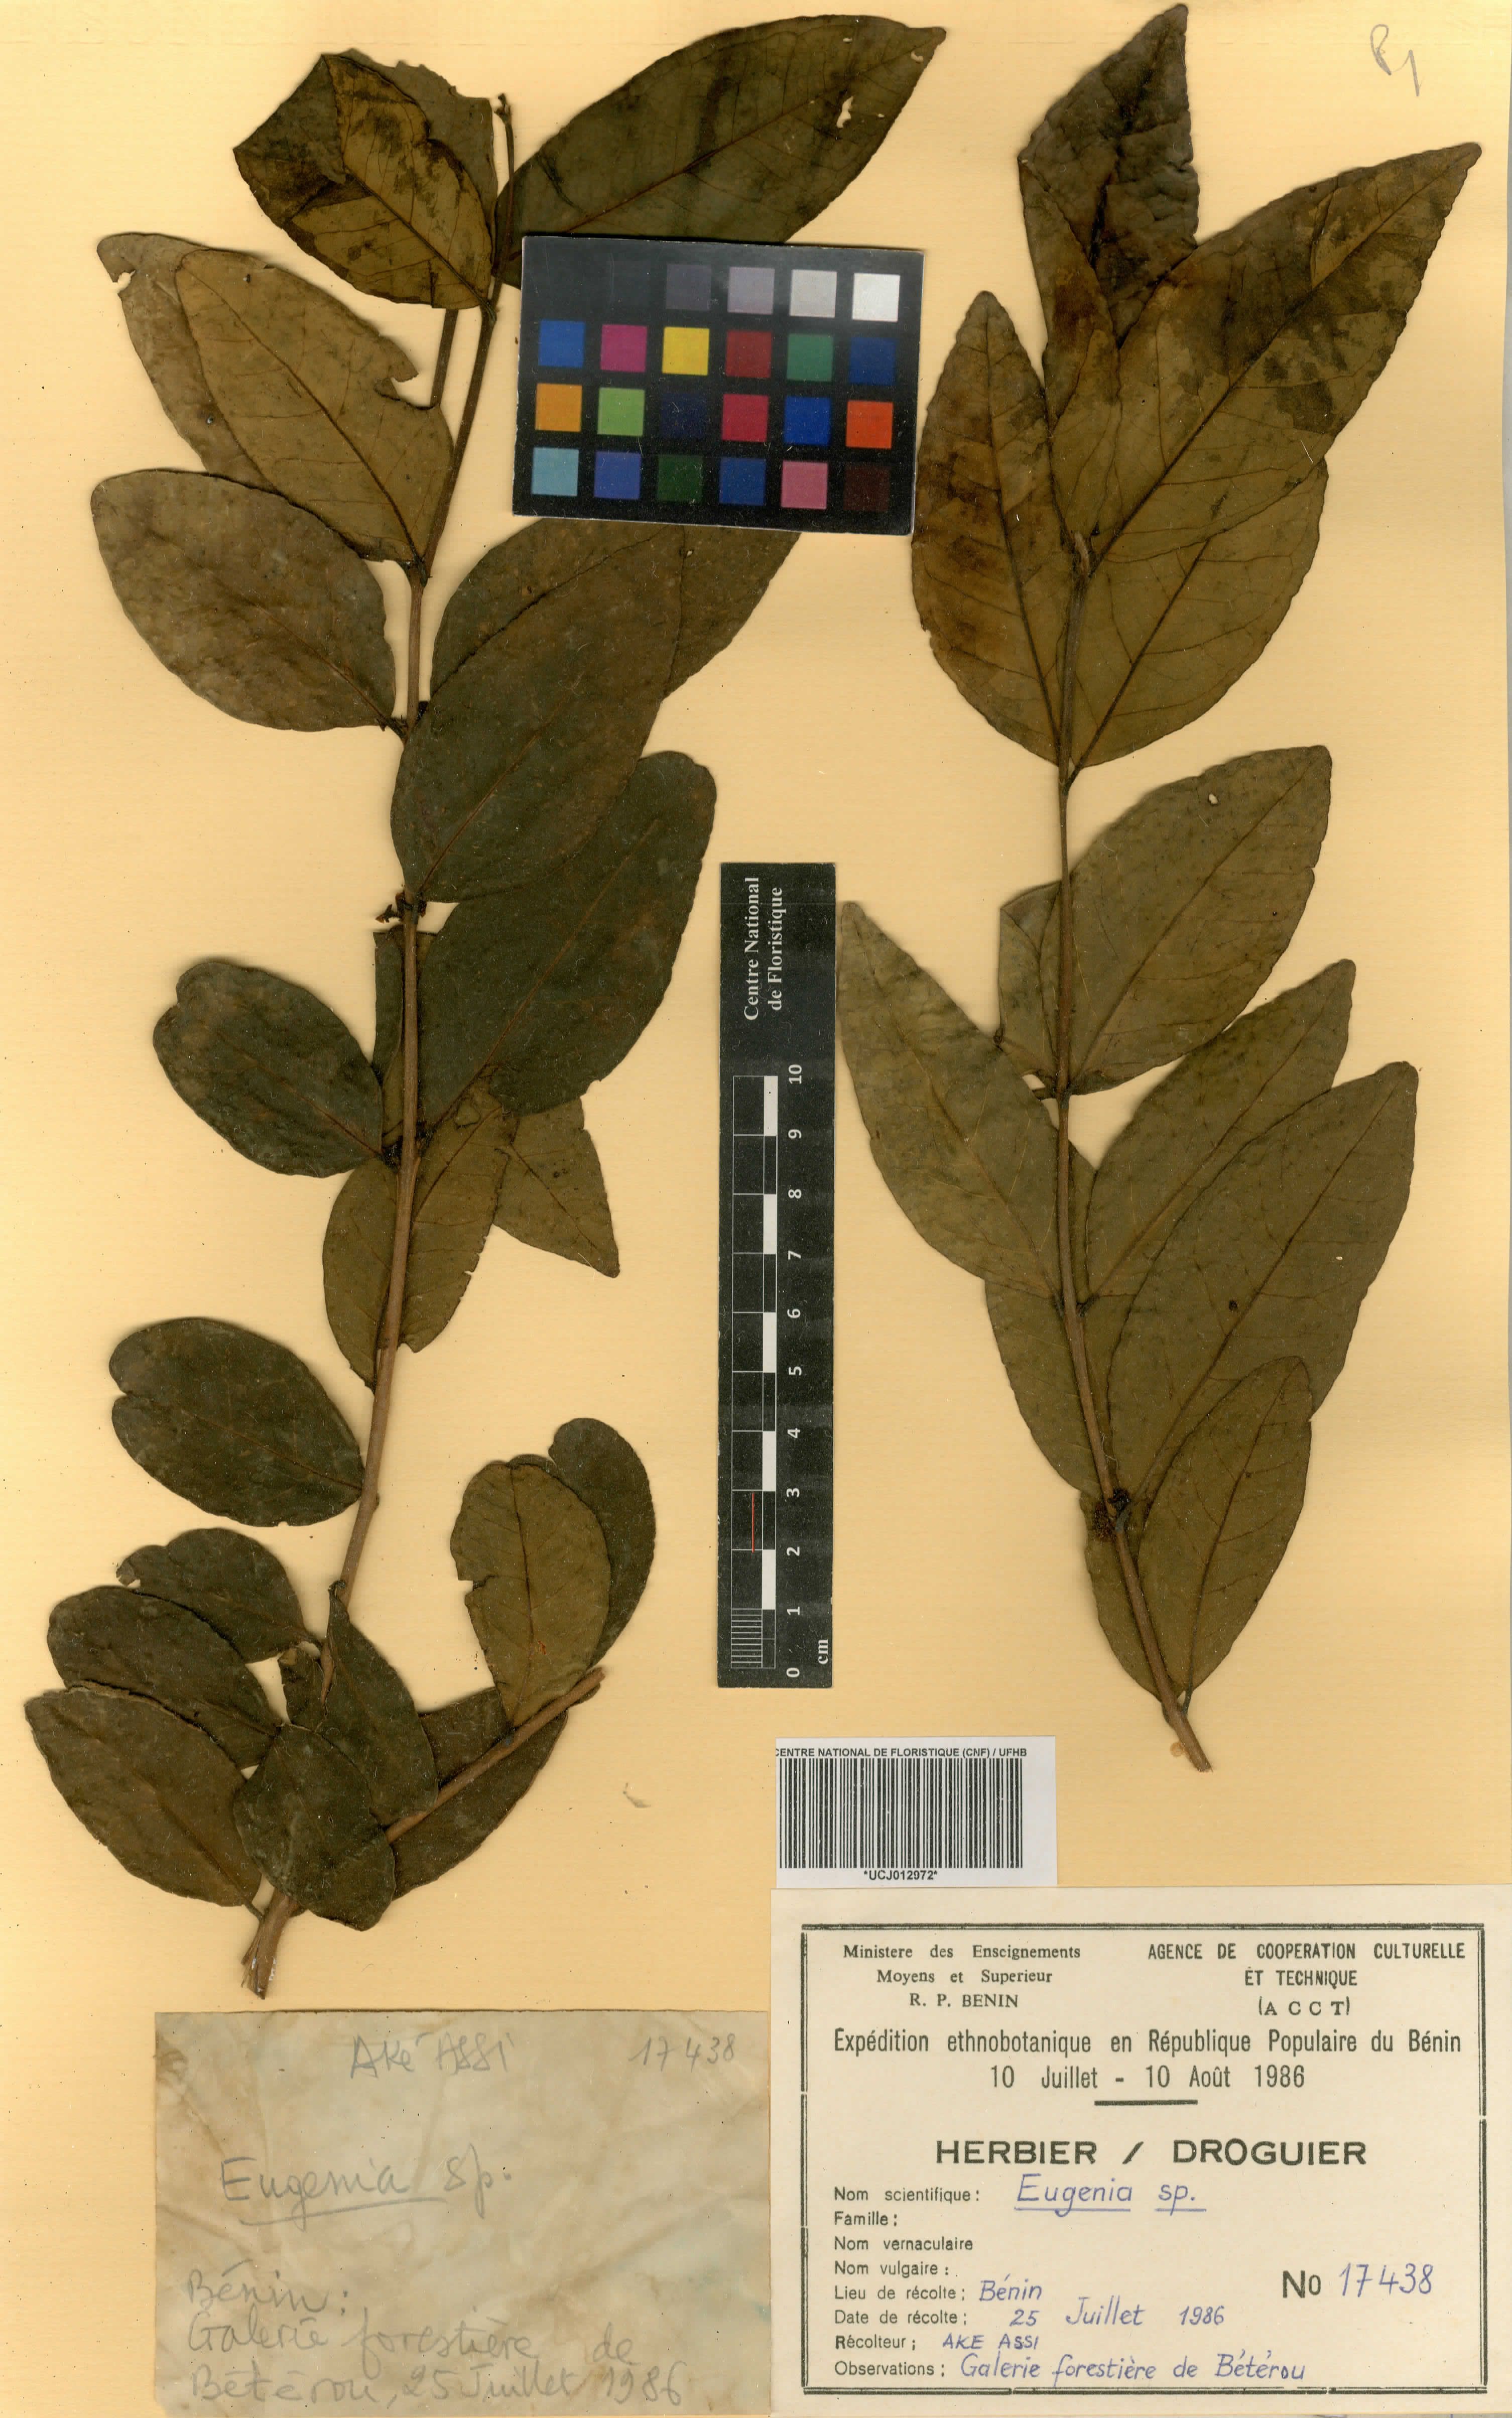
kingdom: Plantae
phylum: Tracheophyta
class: Magnoliopsida
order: Myrtales
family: Myrtaceae
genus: Eugenia
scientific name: Eugenia
